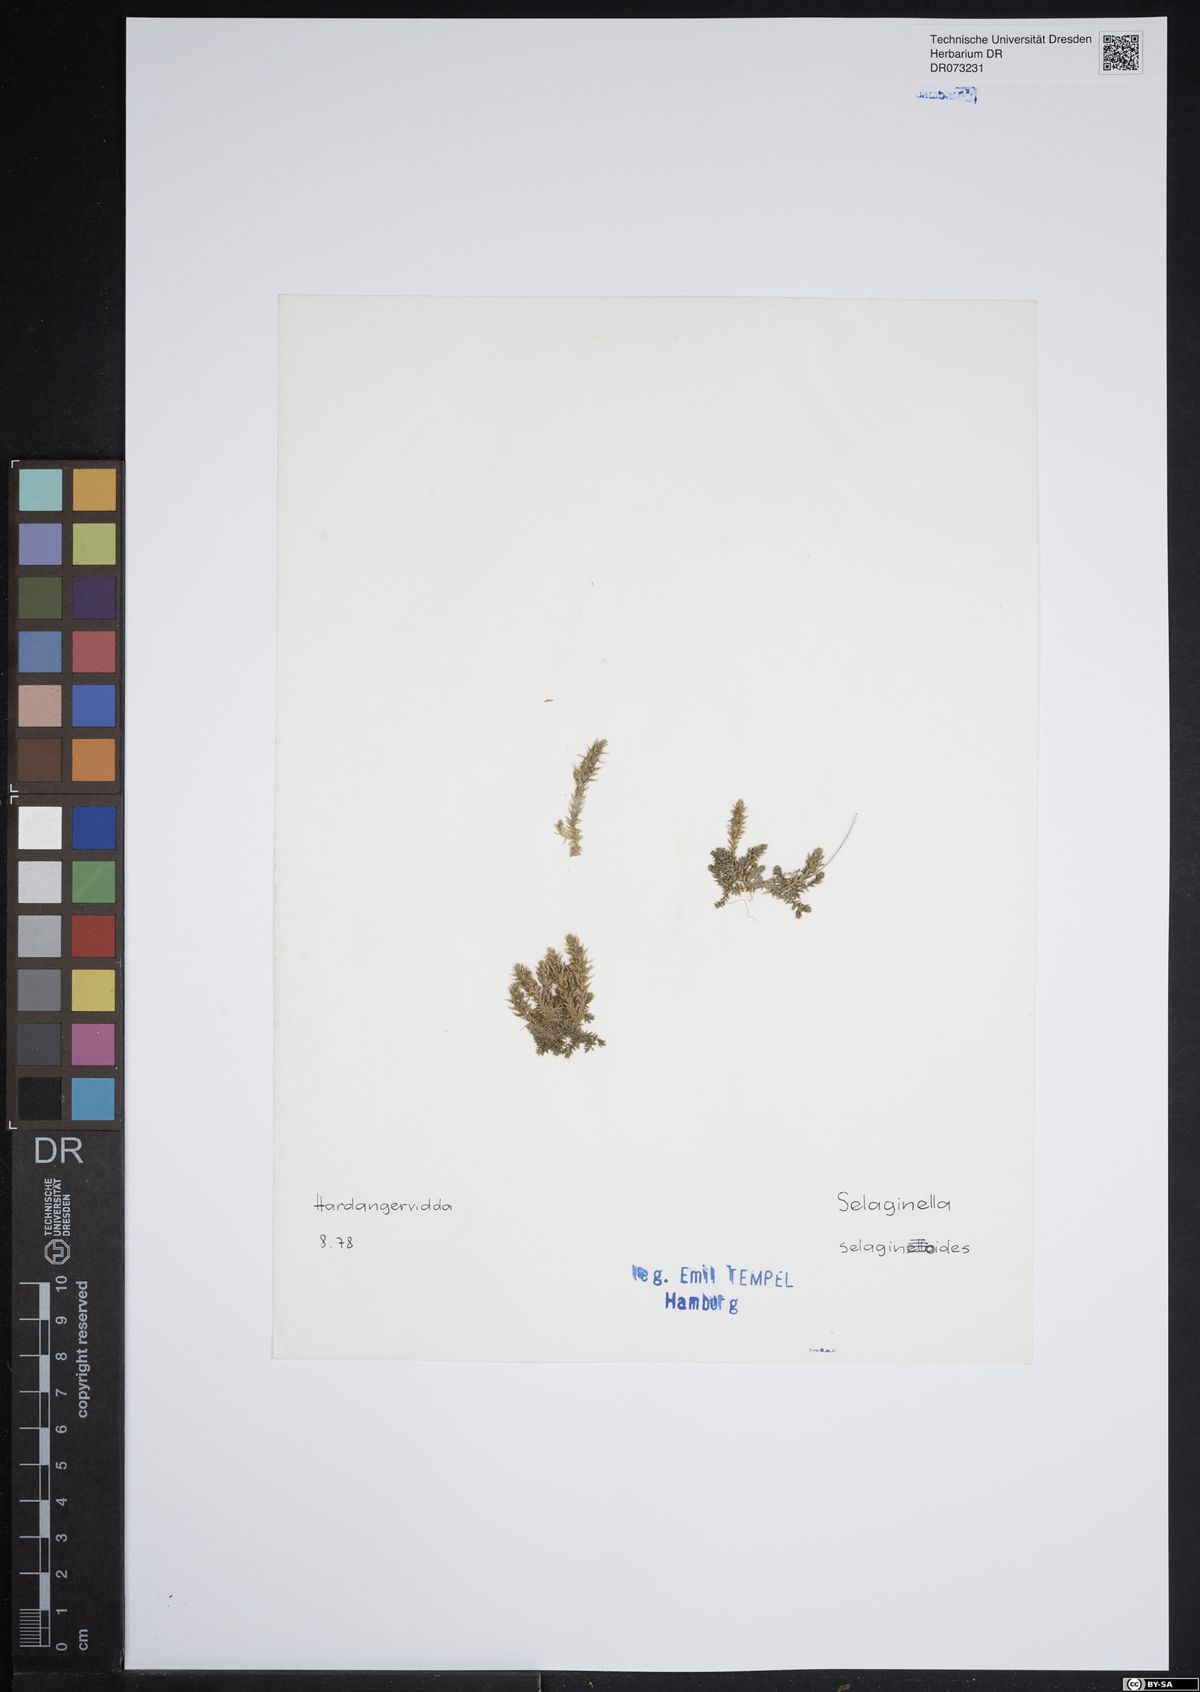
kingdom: Plantae
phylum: Tracheophyta
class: Lycopodiopsida
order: Selaginellales
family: Selaginellaceae
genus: Selaginella
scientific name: Selaginella selaginoides
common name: Prickly mountain-moss
